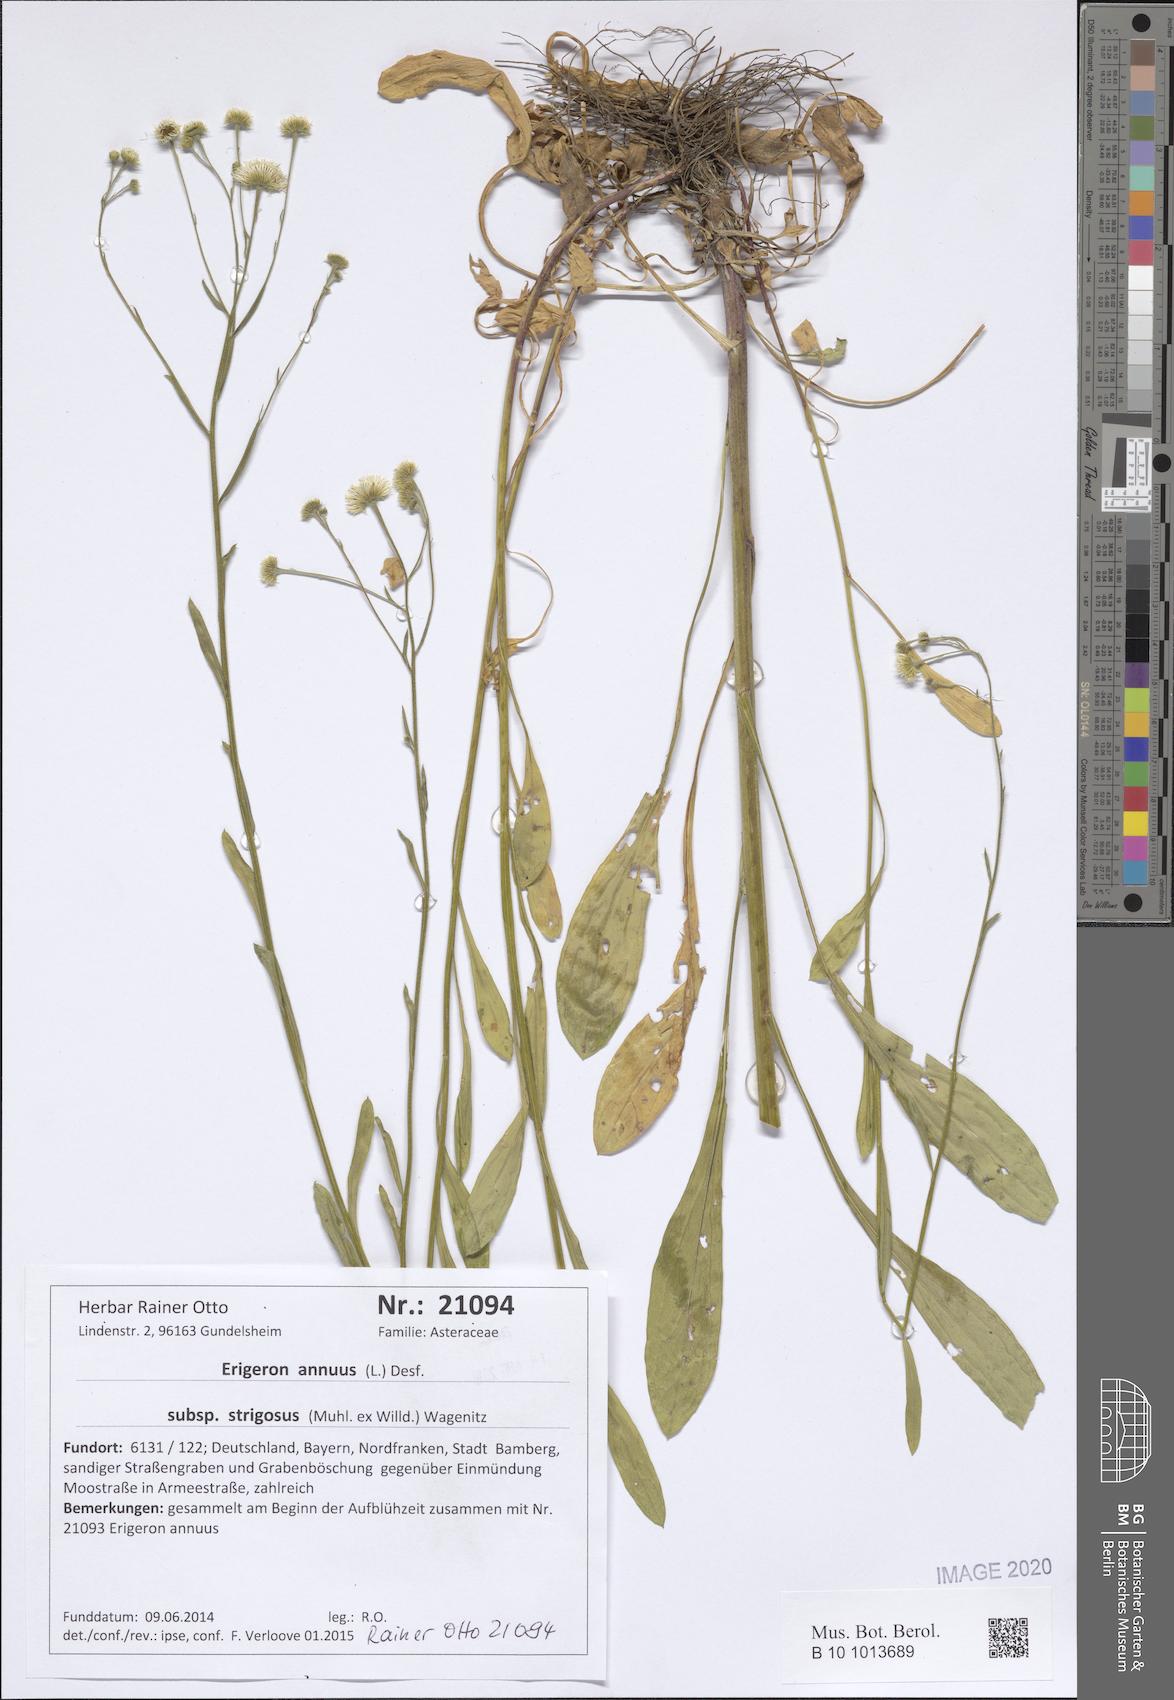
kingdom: Plantae
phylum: Tracheophyta
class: Magnoliopsida
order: Asterales
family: Asteraceae
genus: Erigeron
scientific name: Erigeron strigosus
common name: Common eastern fleabane
